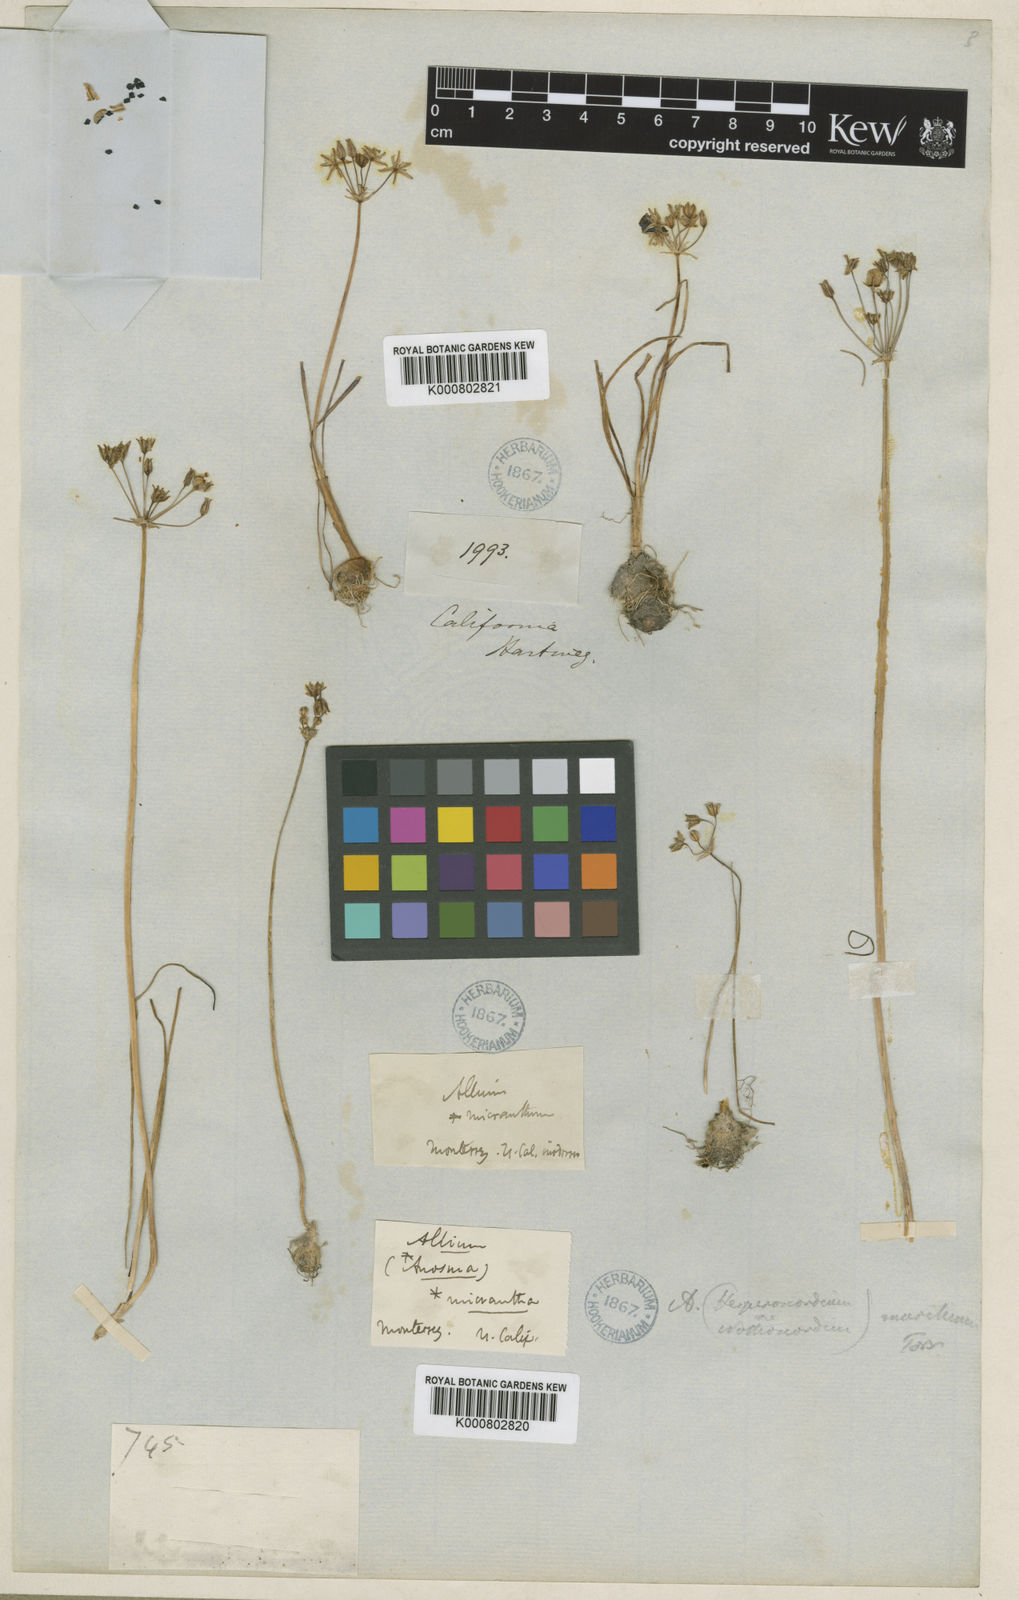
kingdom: Plantae
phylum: Tracheophyta
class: Liliopsida
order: Asparagales
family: Asparagaceae
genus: Muilla
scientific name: Muilla
